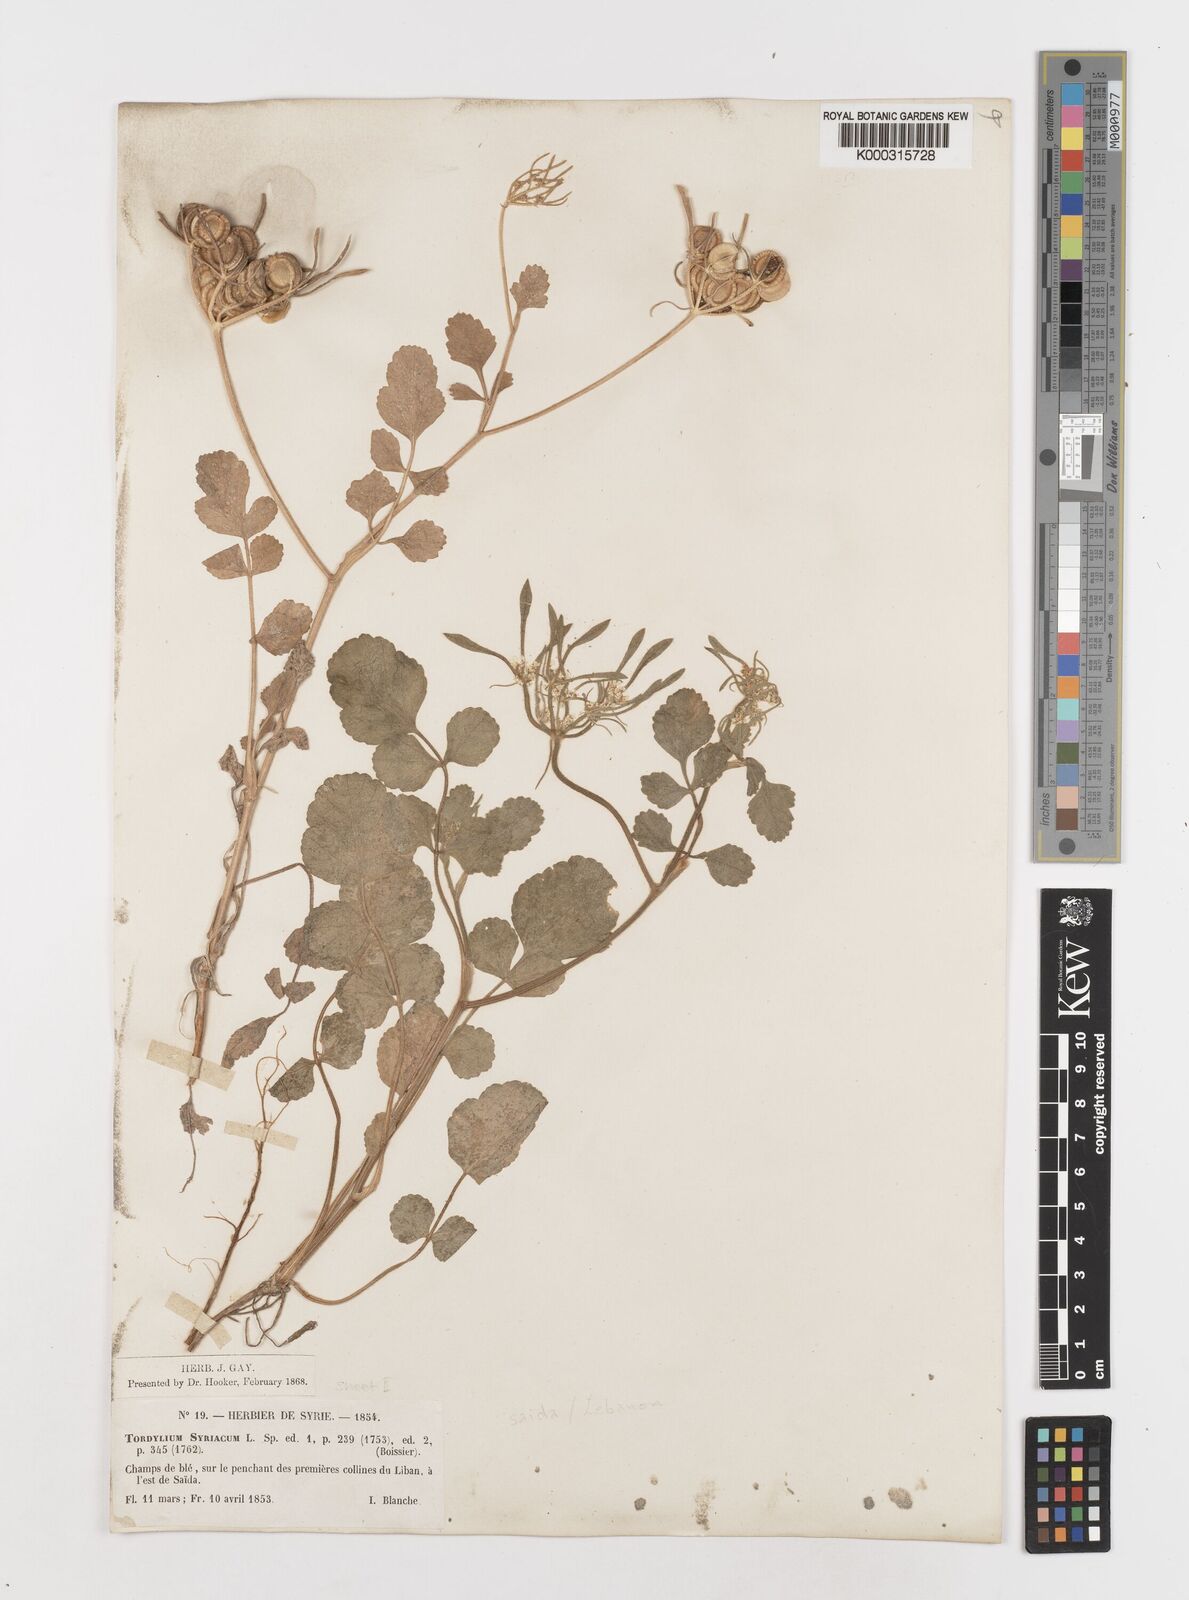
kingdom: Plantae
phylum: Tracheophyta
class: Magnoliopsida
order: Apiales
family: Apiaceae
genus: Tordylium
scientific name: Tordylium syriacum
